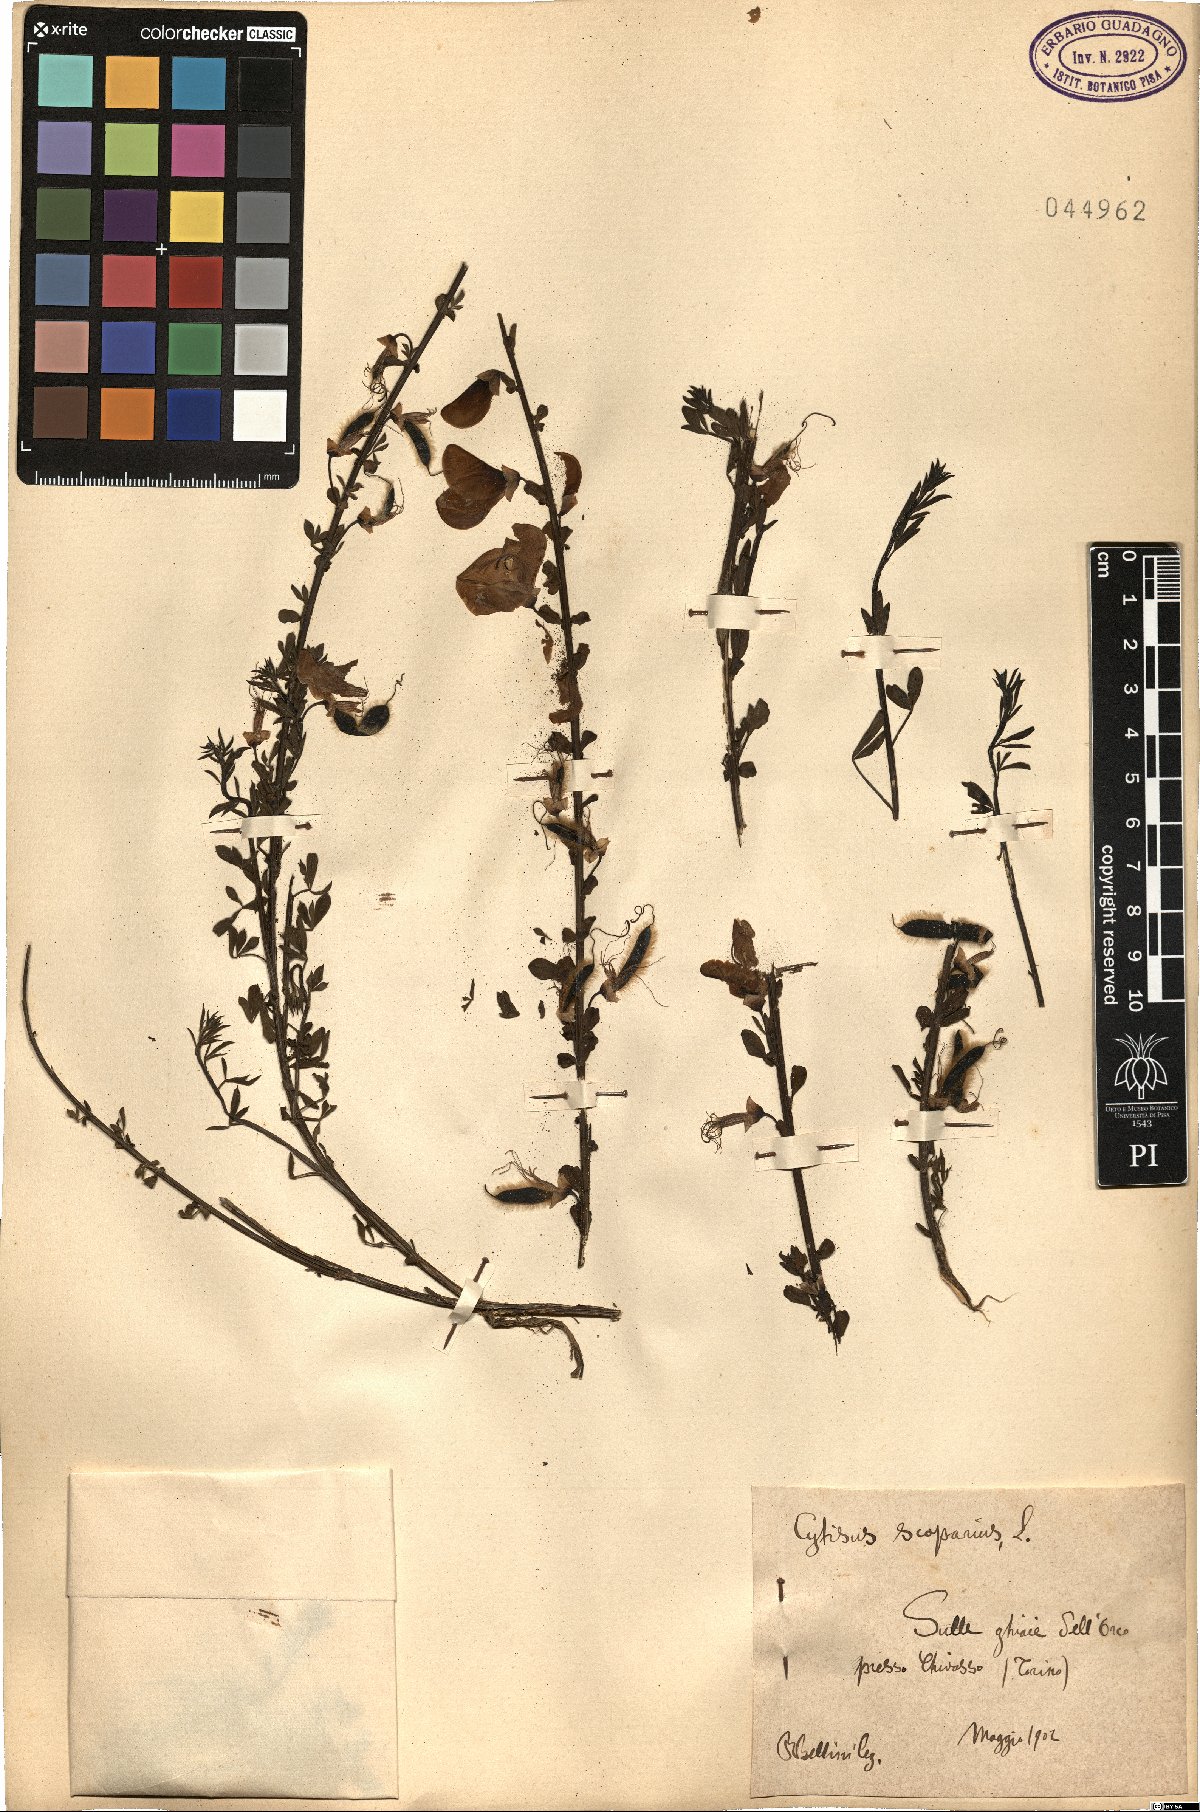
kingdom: Plantae
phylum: Tracheophyta
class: Magnoliopsida
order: Fabales
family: Fabaceae
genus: Cytisus
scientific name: Cytisus scoparius
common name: Scotch broom
